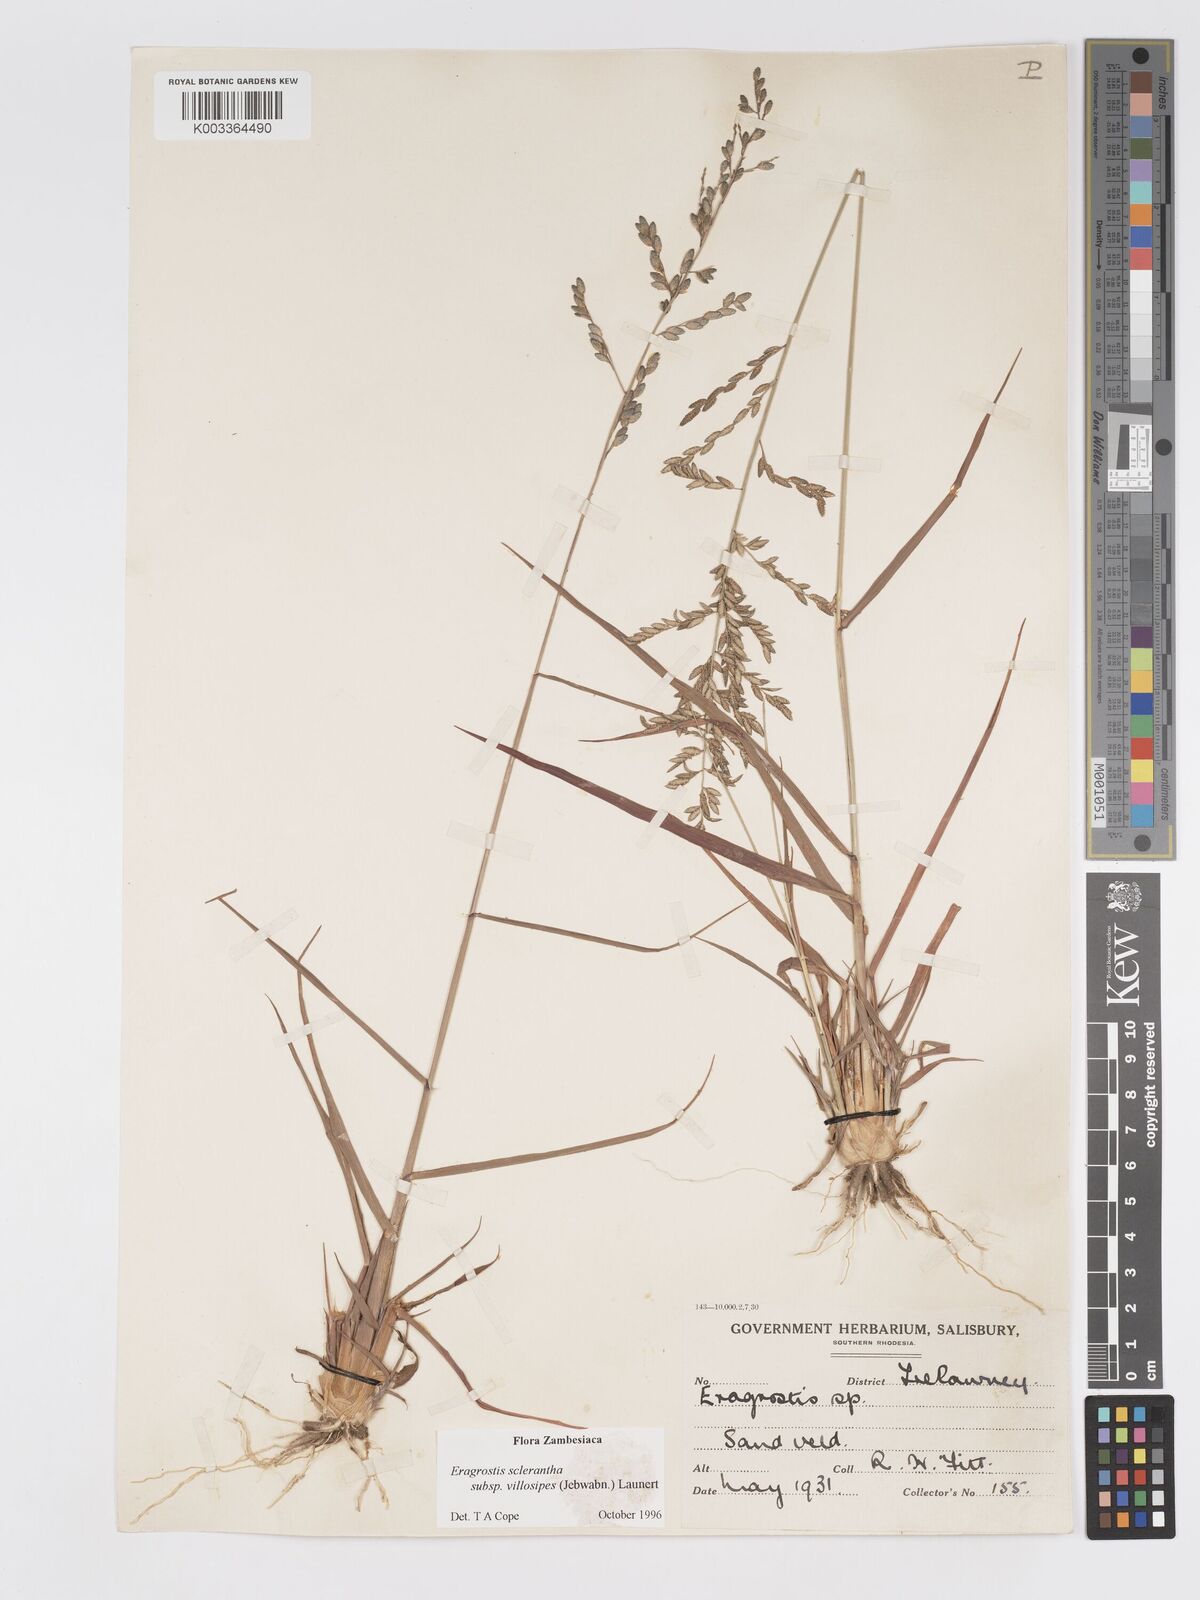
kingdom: Plantae
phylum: Tracheophyta
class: Liliopsida
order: Poales
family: Poaceae
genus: Eragrostis
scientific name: Eragrostis sclerantha
